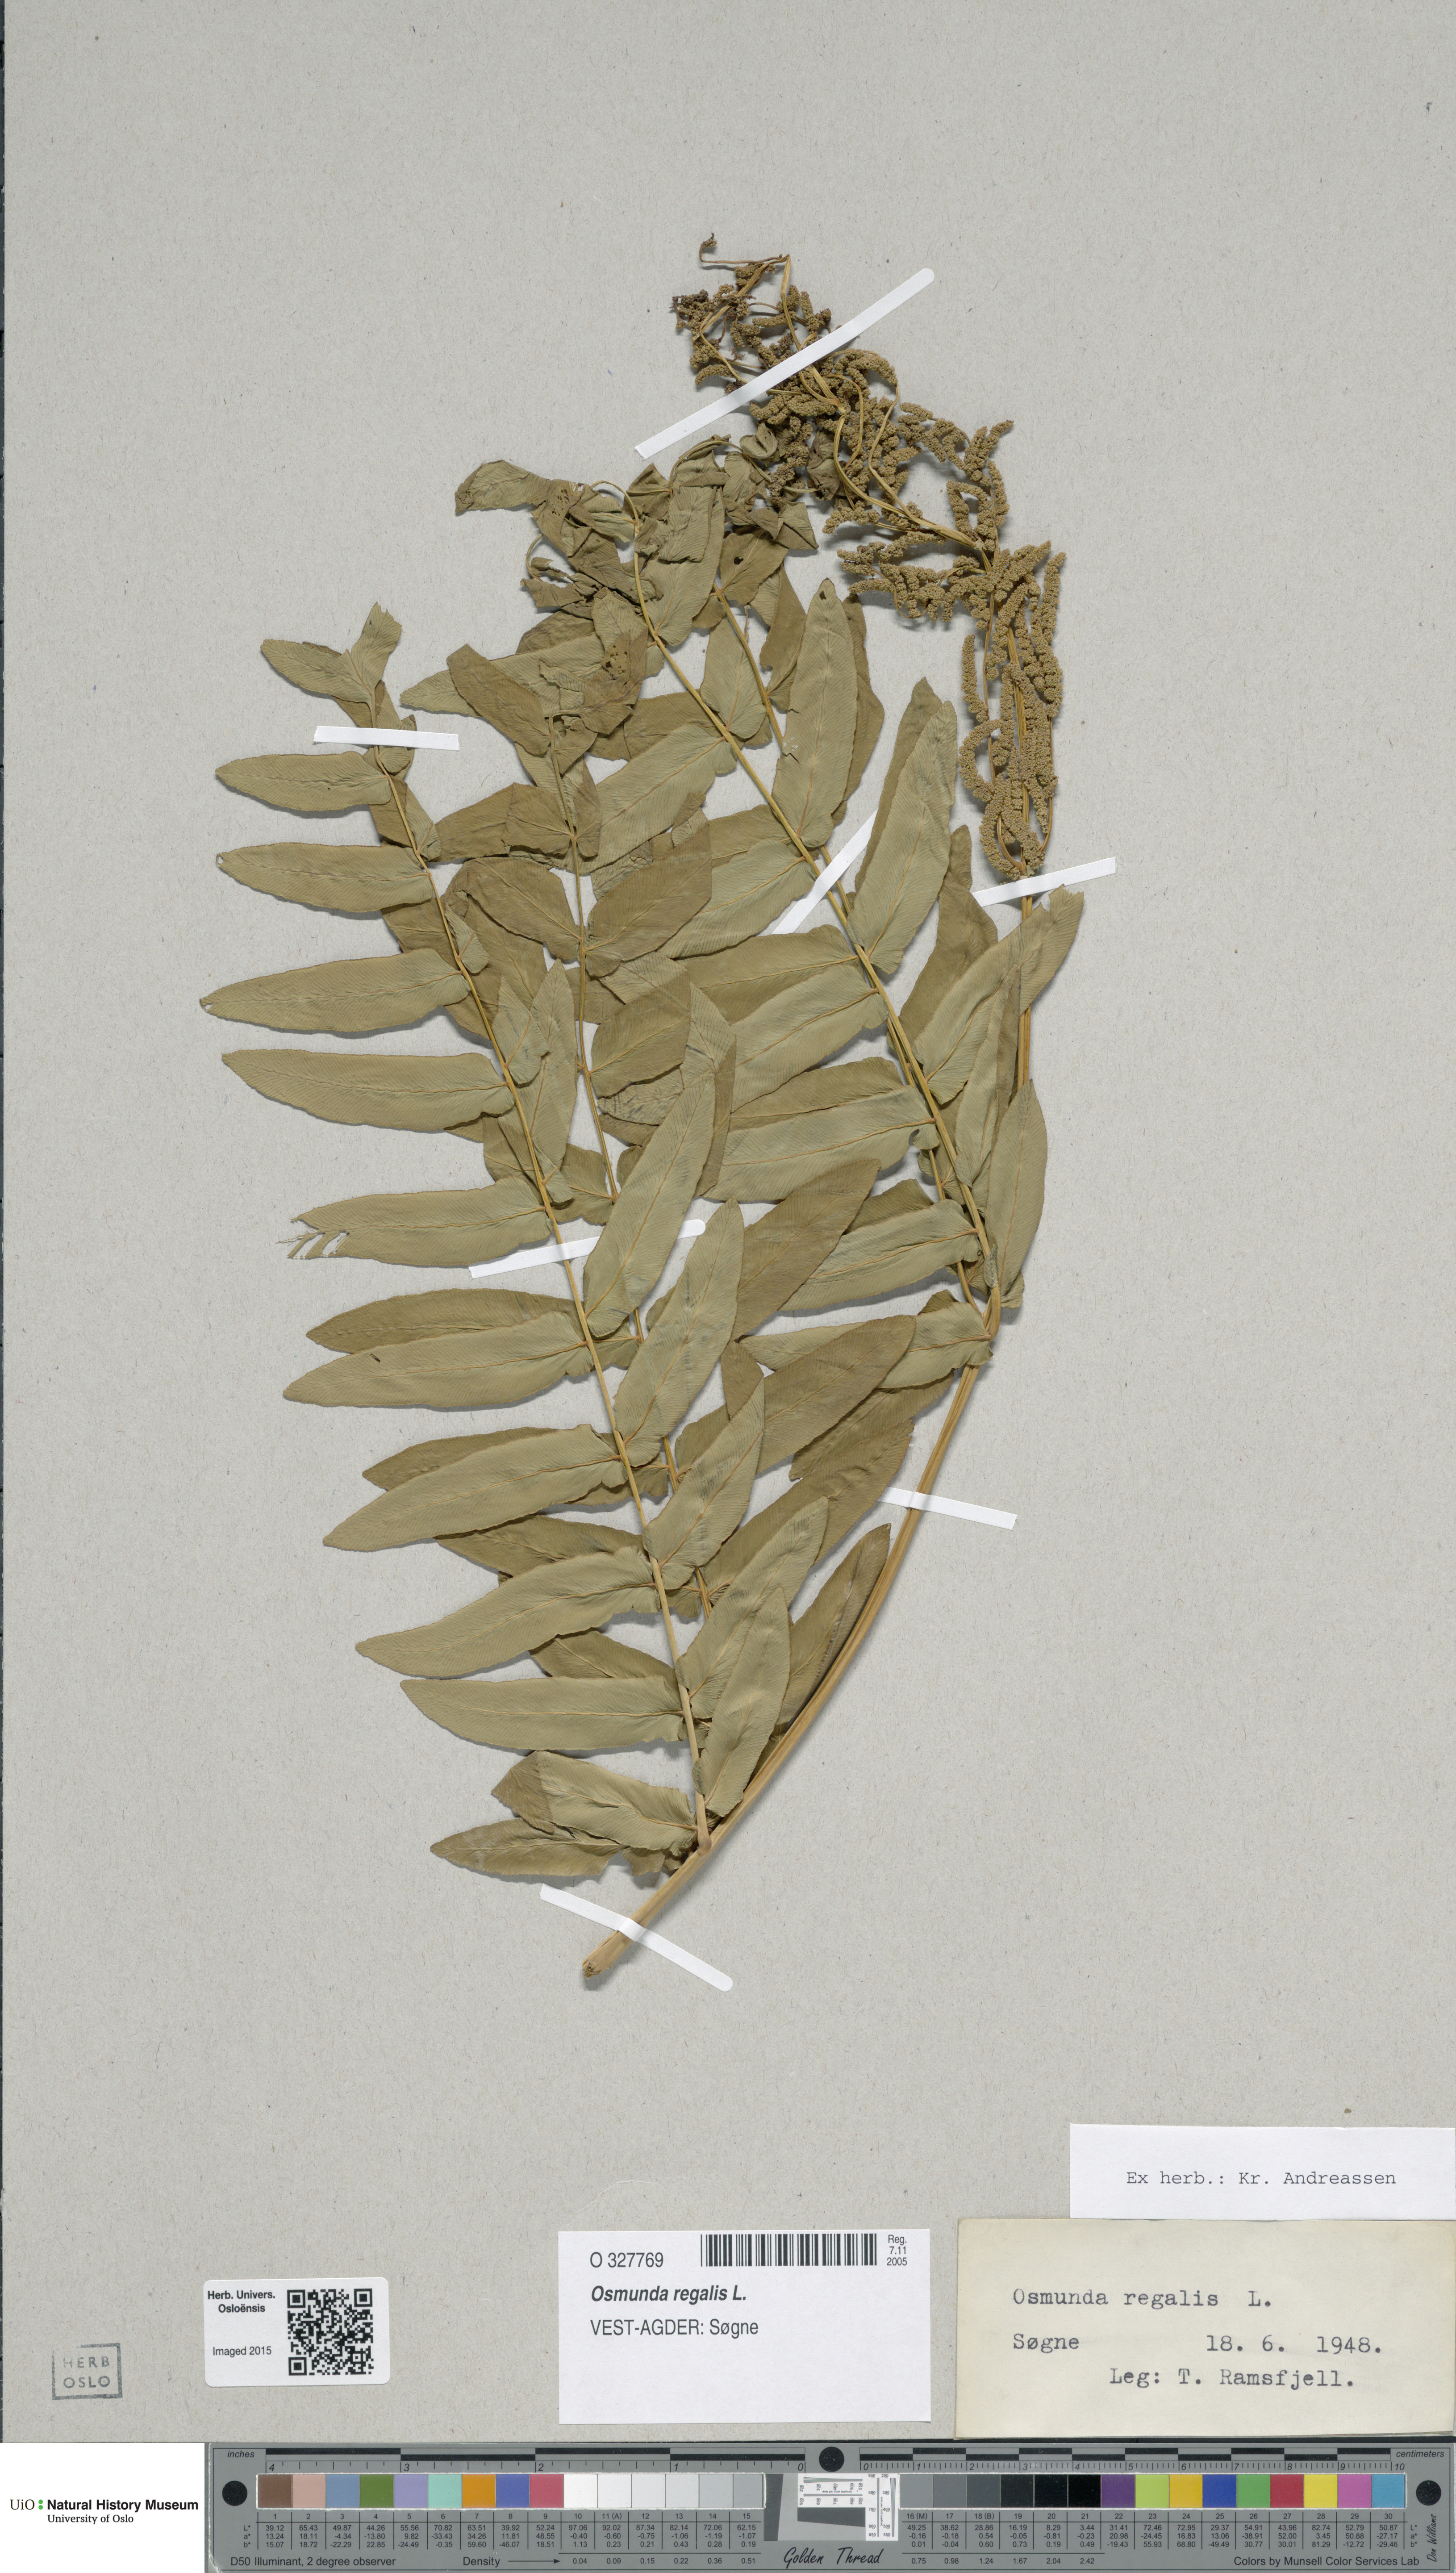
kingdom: Plantae
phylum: Tracheophyta
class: Polypodiopsida
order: Osmundales
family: Osmundaceae
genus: Osmunda
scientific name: Osmunda regalis
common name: Royal fern
